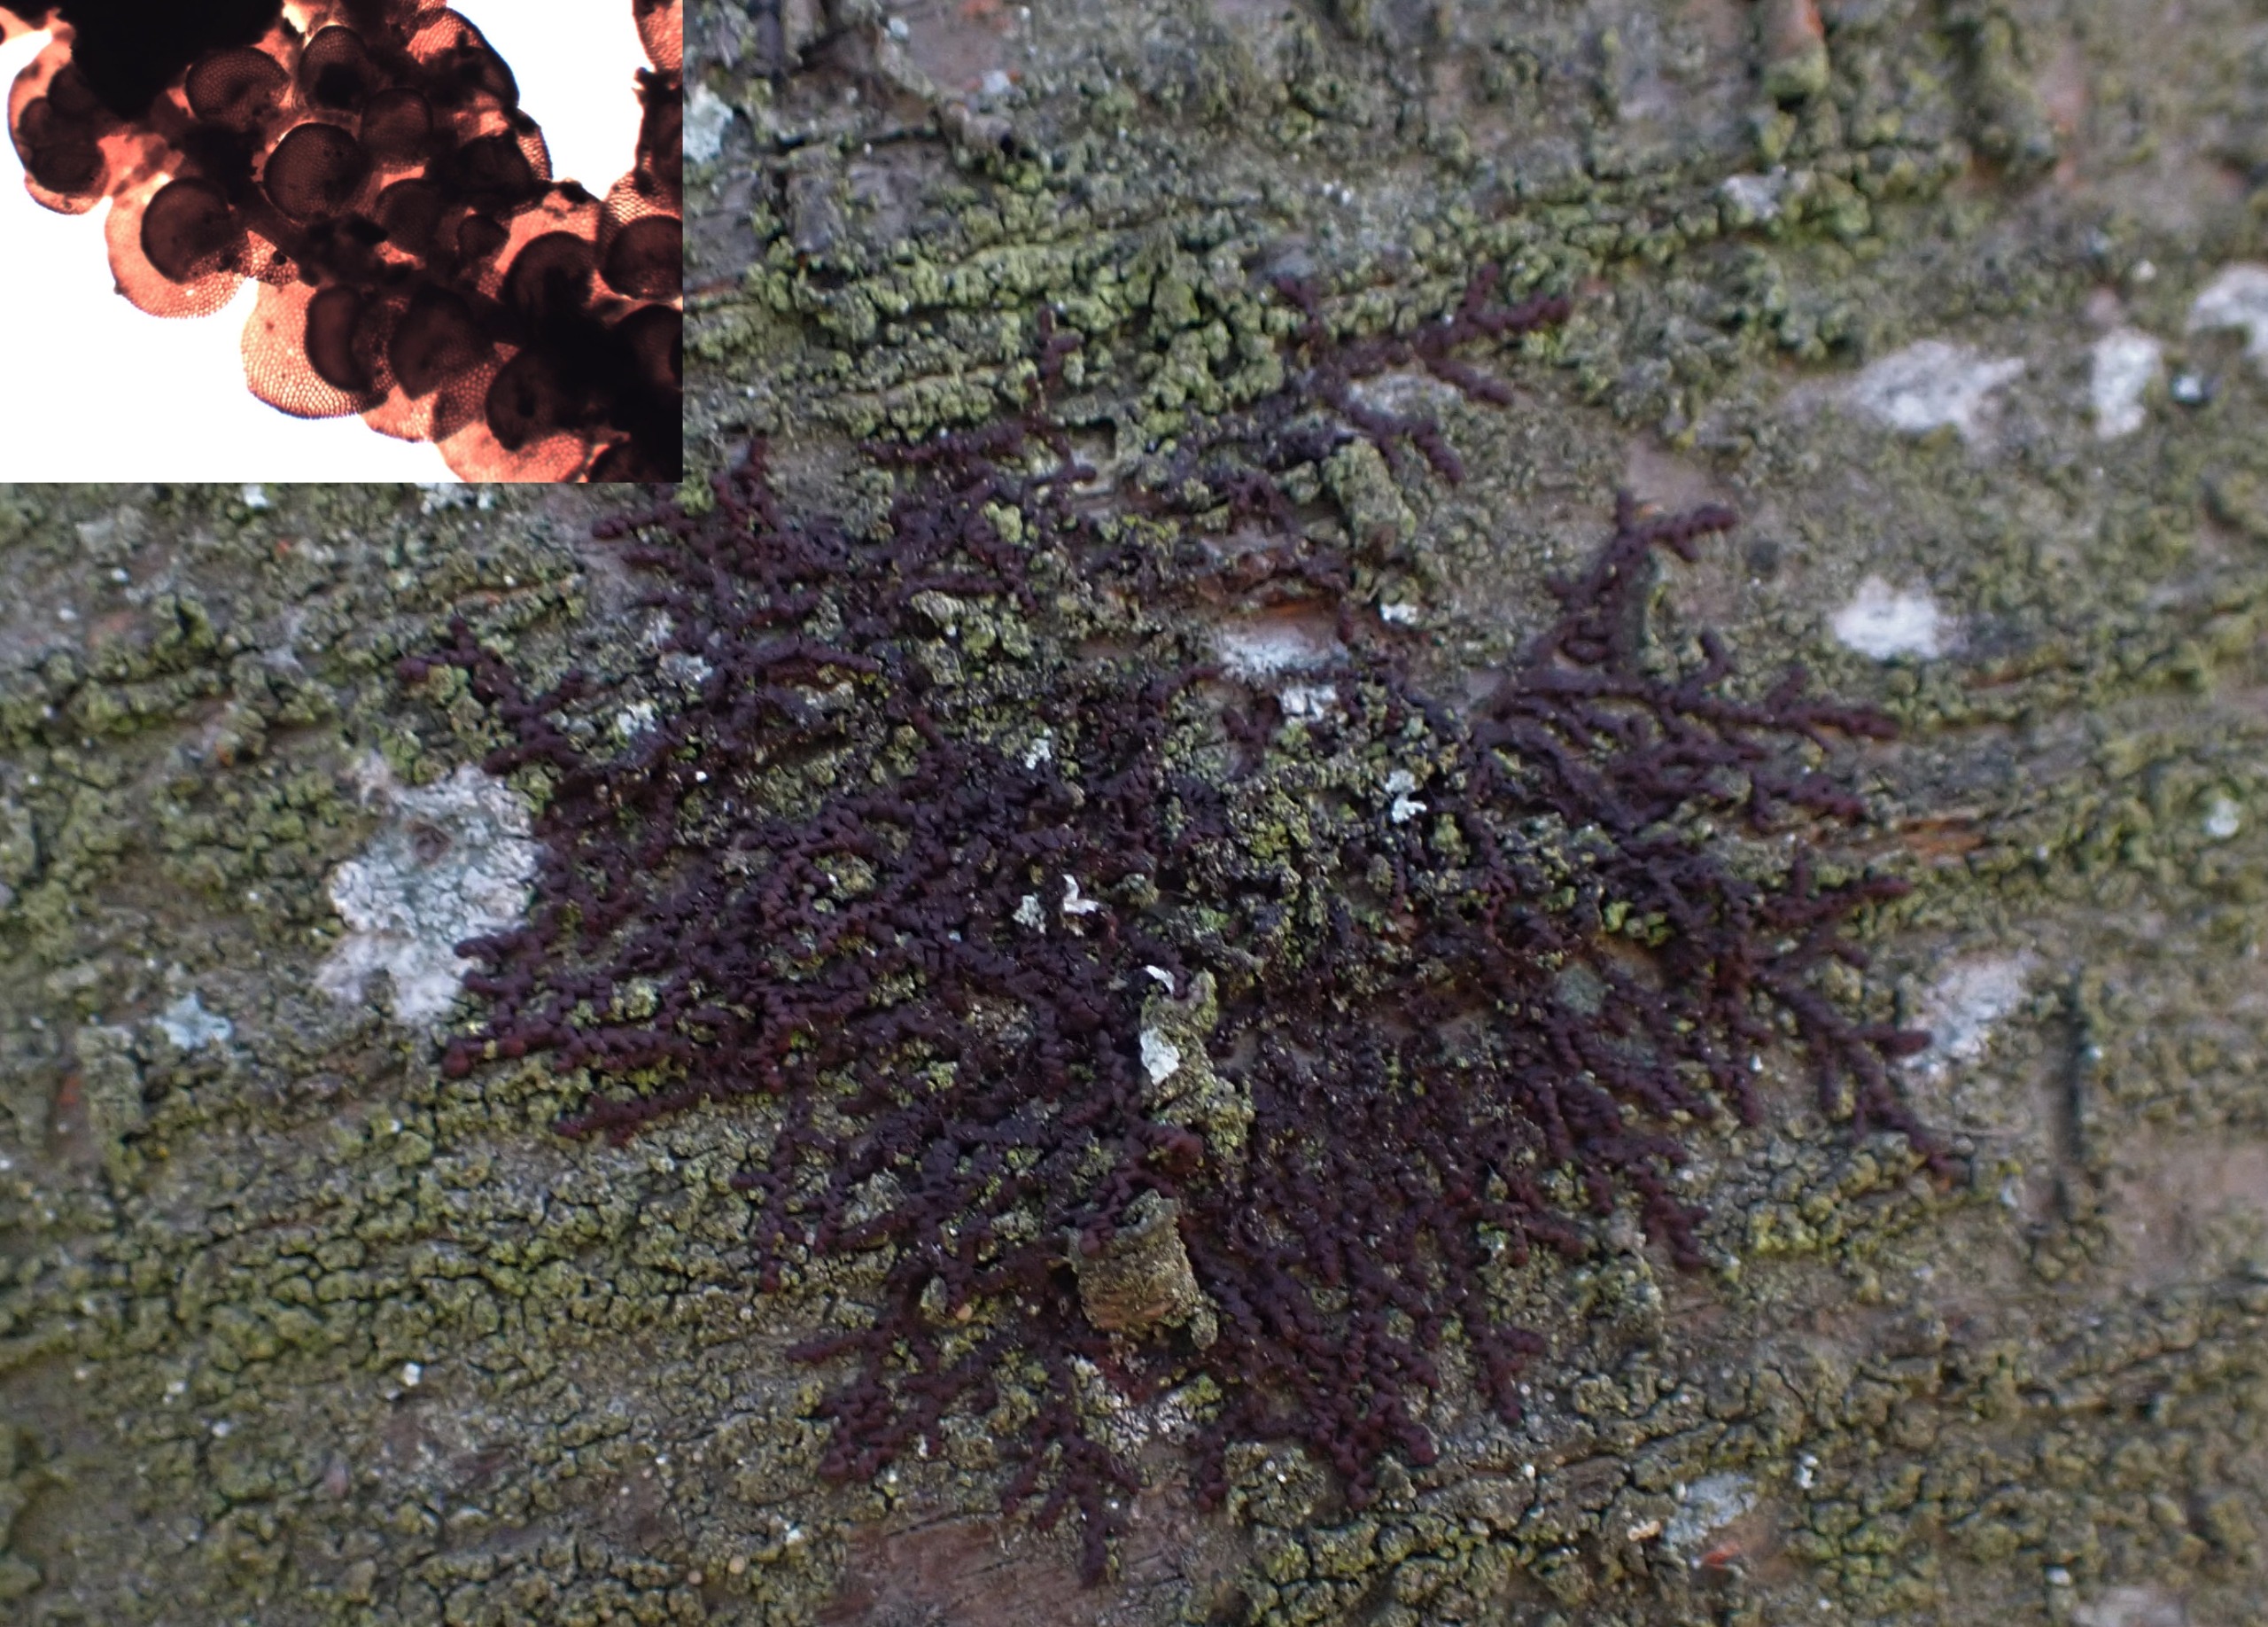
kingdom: Plantae
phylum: Marchantiophyta
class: Jungermanniopsida
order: Porellales
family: Frullaniaceae
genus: Frullania
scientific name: Frullania dilatata
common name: Mat bronzemos
